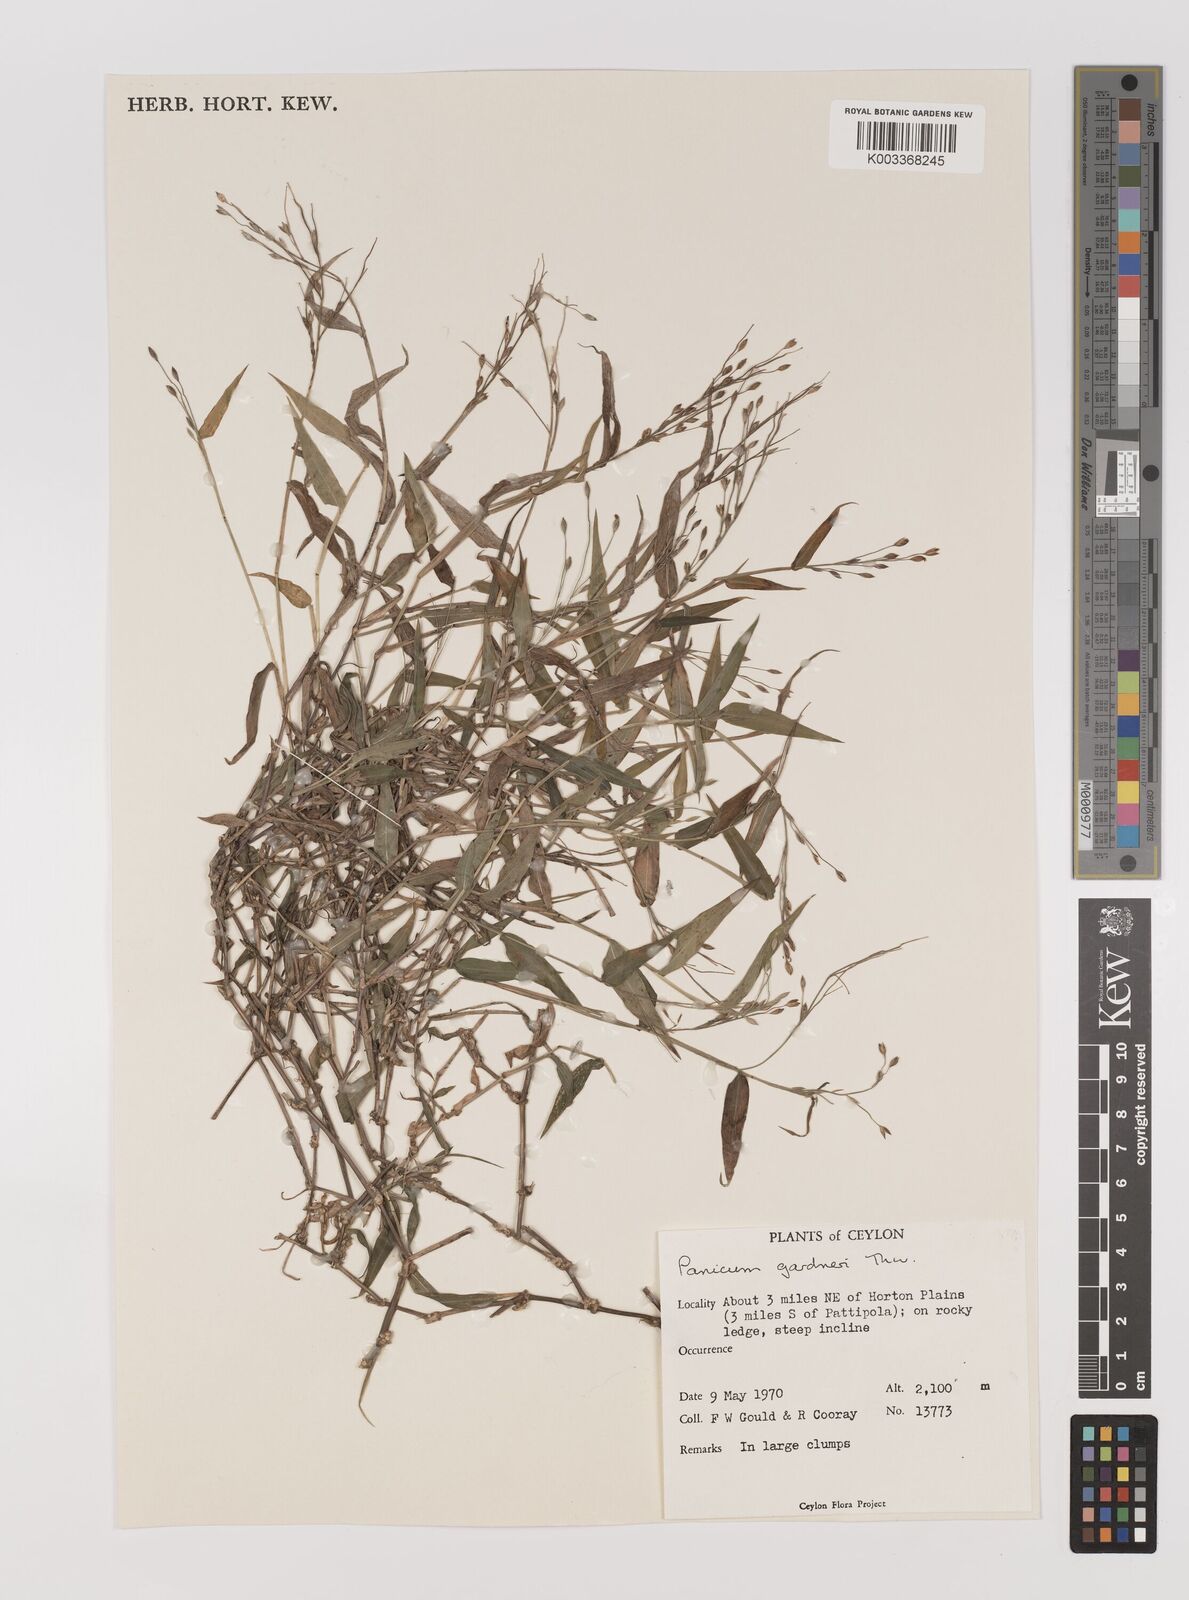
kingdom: Plantae
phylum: Tracheophyta
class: Liliopsida
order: Poales
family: Poaceae
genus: Panicum
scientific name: Panicum gardneri
